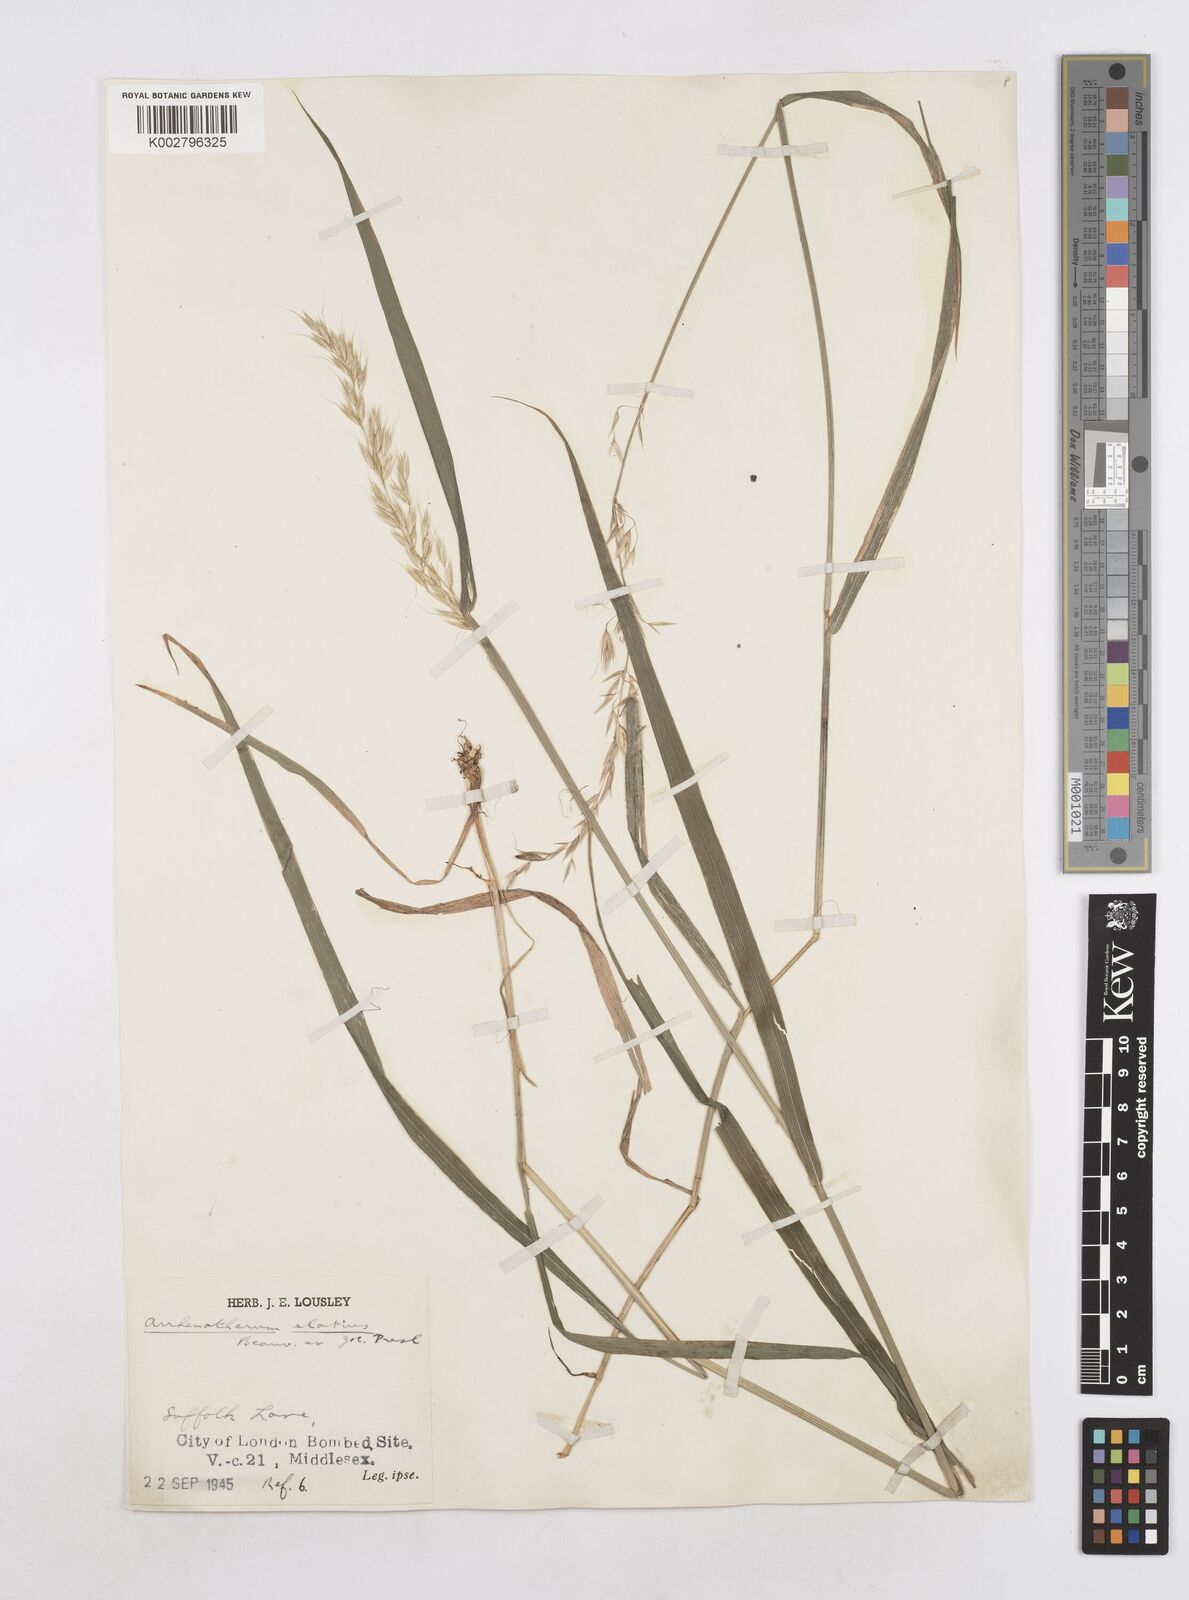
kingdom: Plantae
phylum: Tracheophyta
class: Liliopsida
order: Poales
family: Poaceae
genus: Arrhenatherum
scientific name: Arrhenatherum elatius
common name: Tall oatgrass
